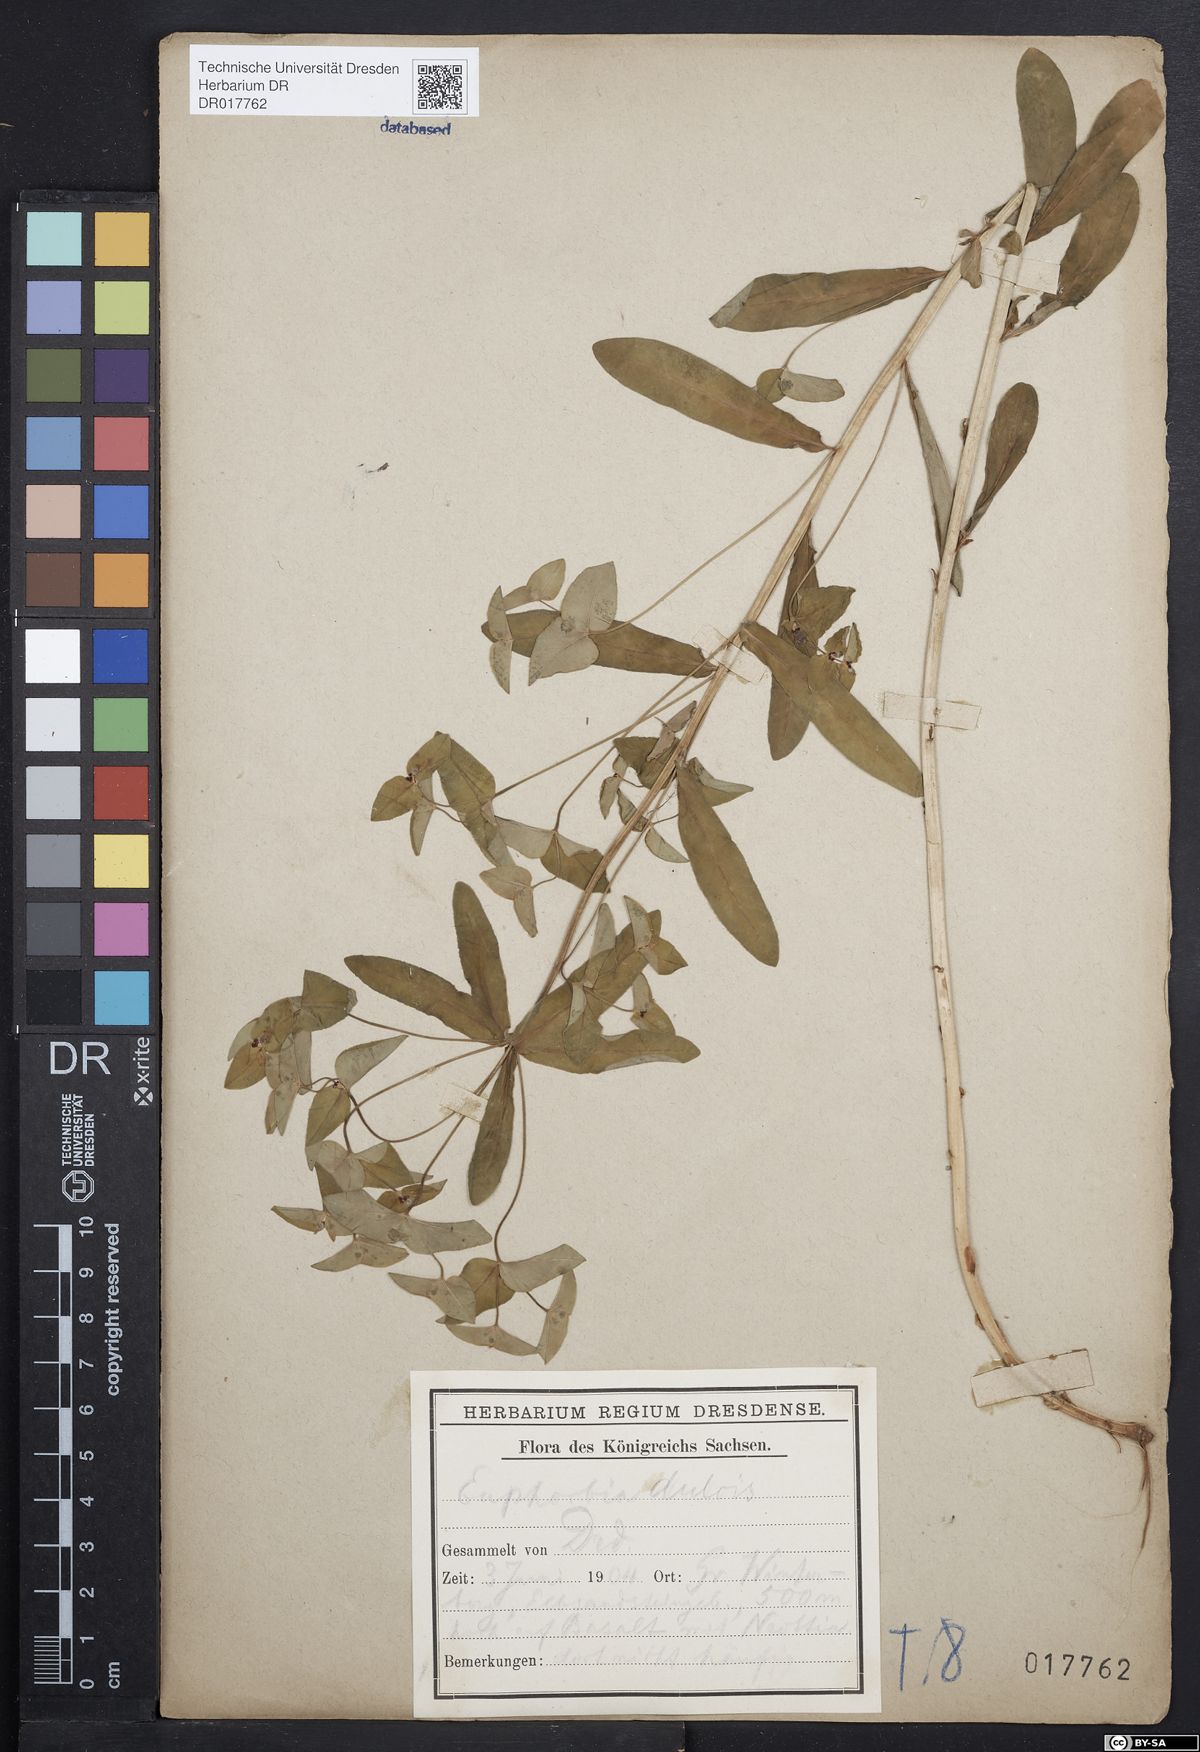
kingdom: Plantae
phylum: Tracheophyta
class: Magnoliopsida
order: Malpighiales
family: Euphorbiaceae
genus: Euphorbia
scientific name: Euphorbia dulcis
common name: Sweet spurge
